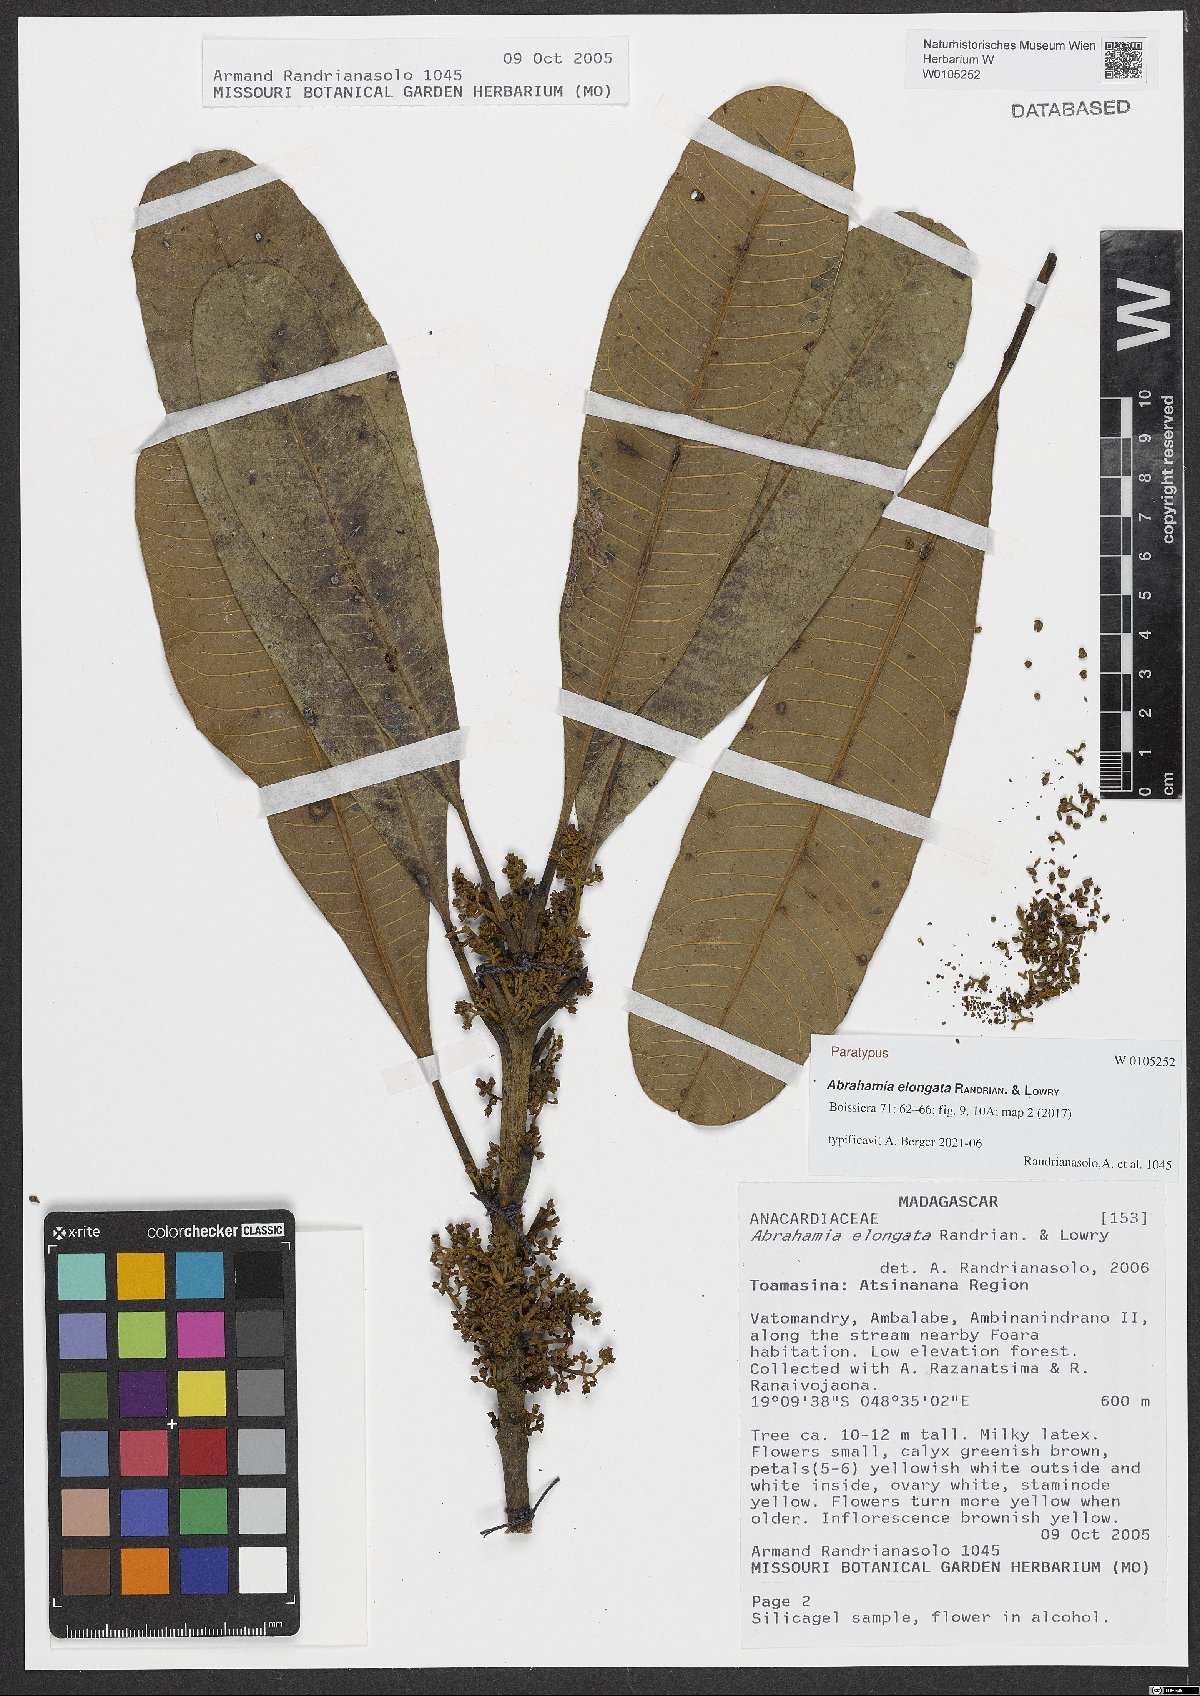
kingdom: Plantae
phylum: Tracheophyta
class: Magnoliopsida
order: Sapindales
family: Anacardiaceae
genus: Abrahamia
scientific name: Abrahamia elongata
